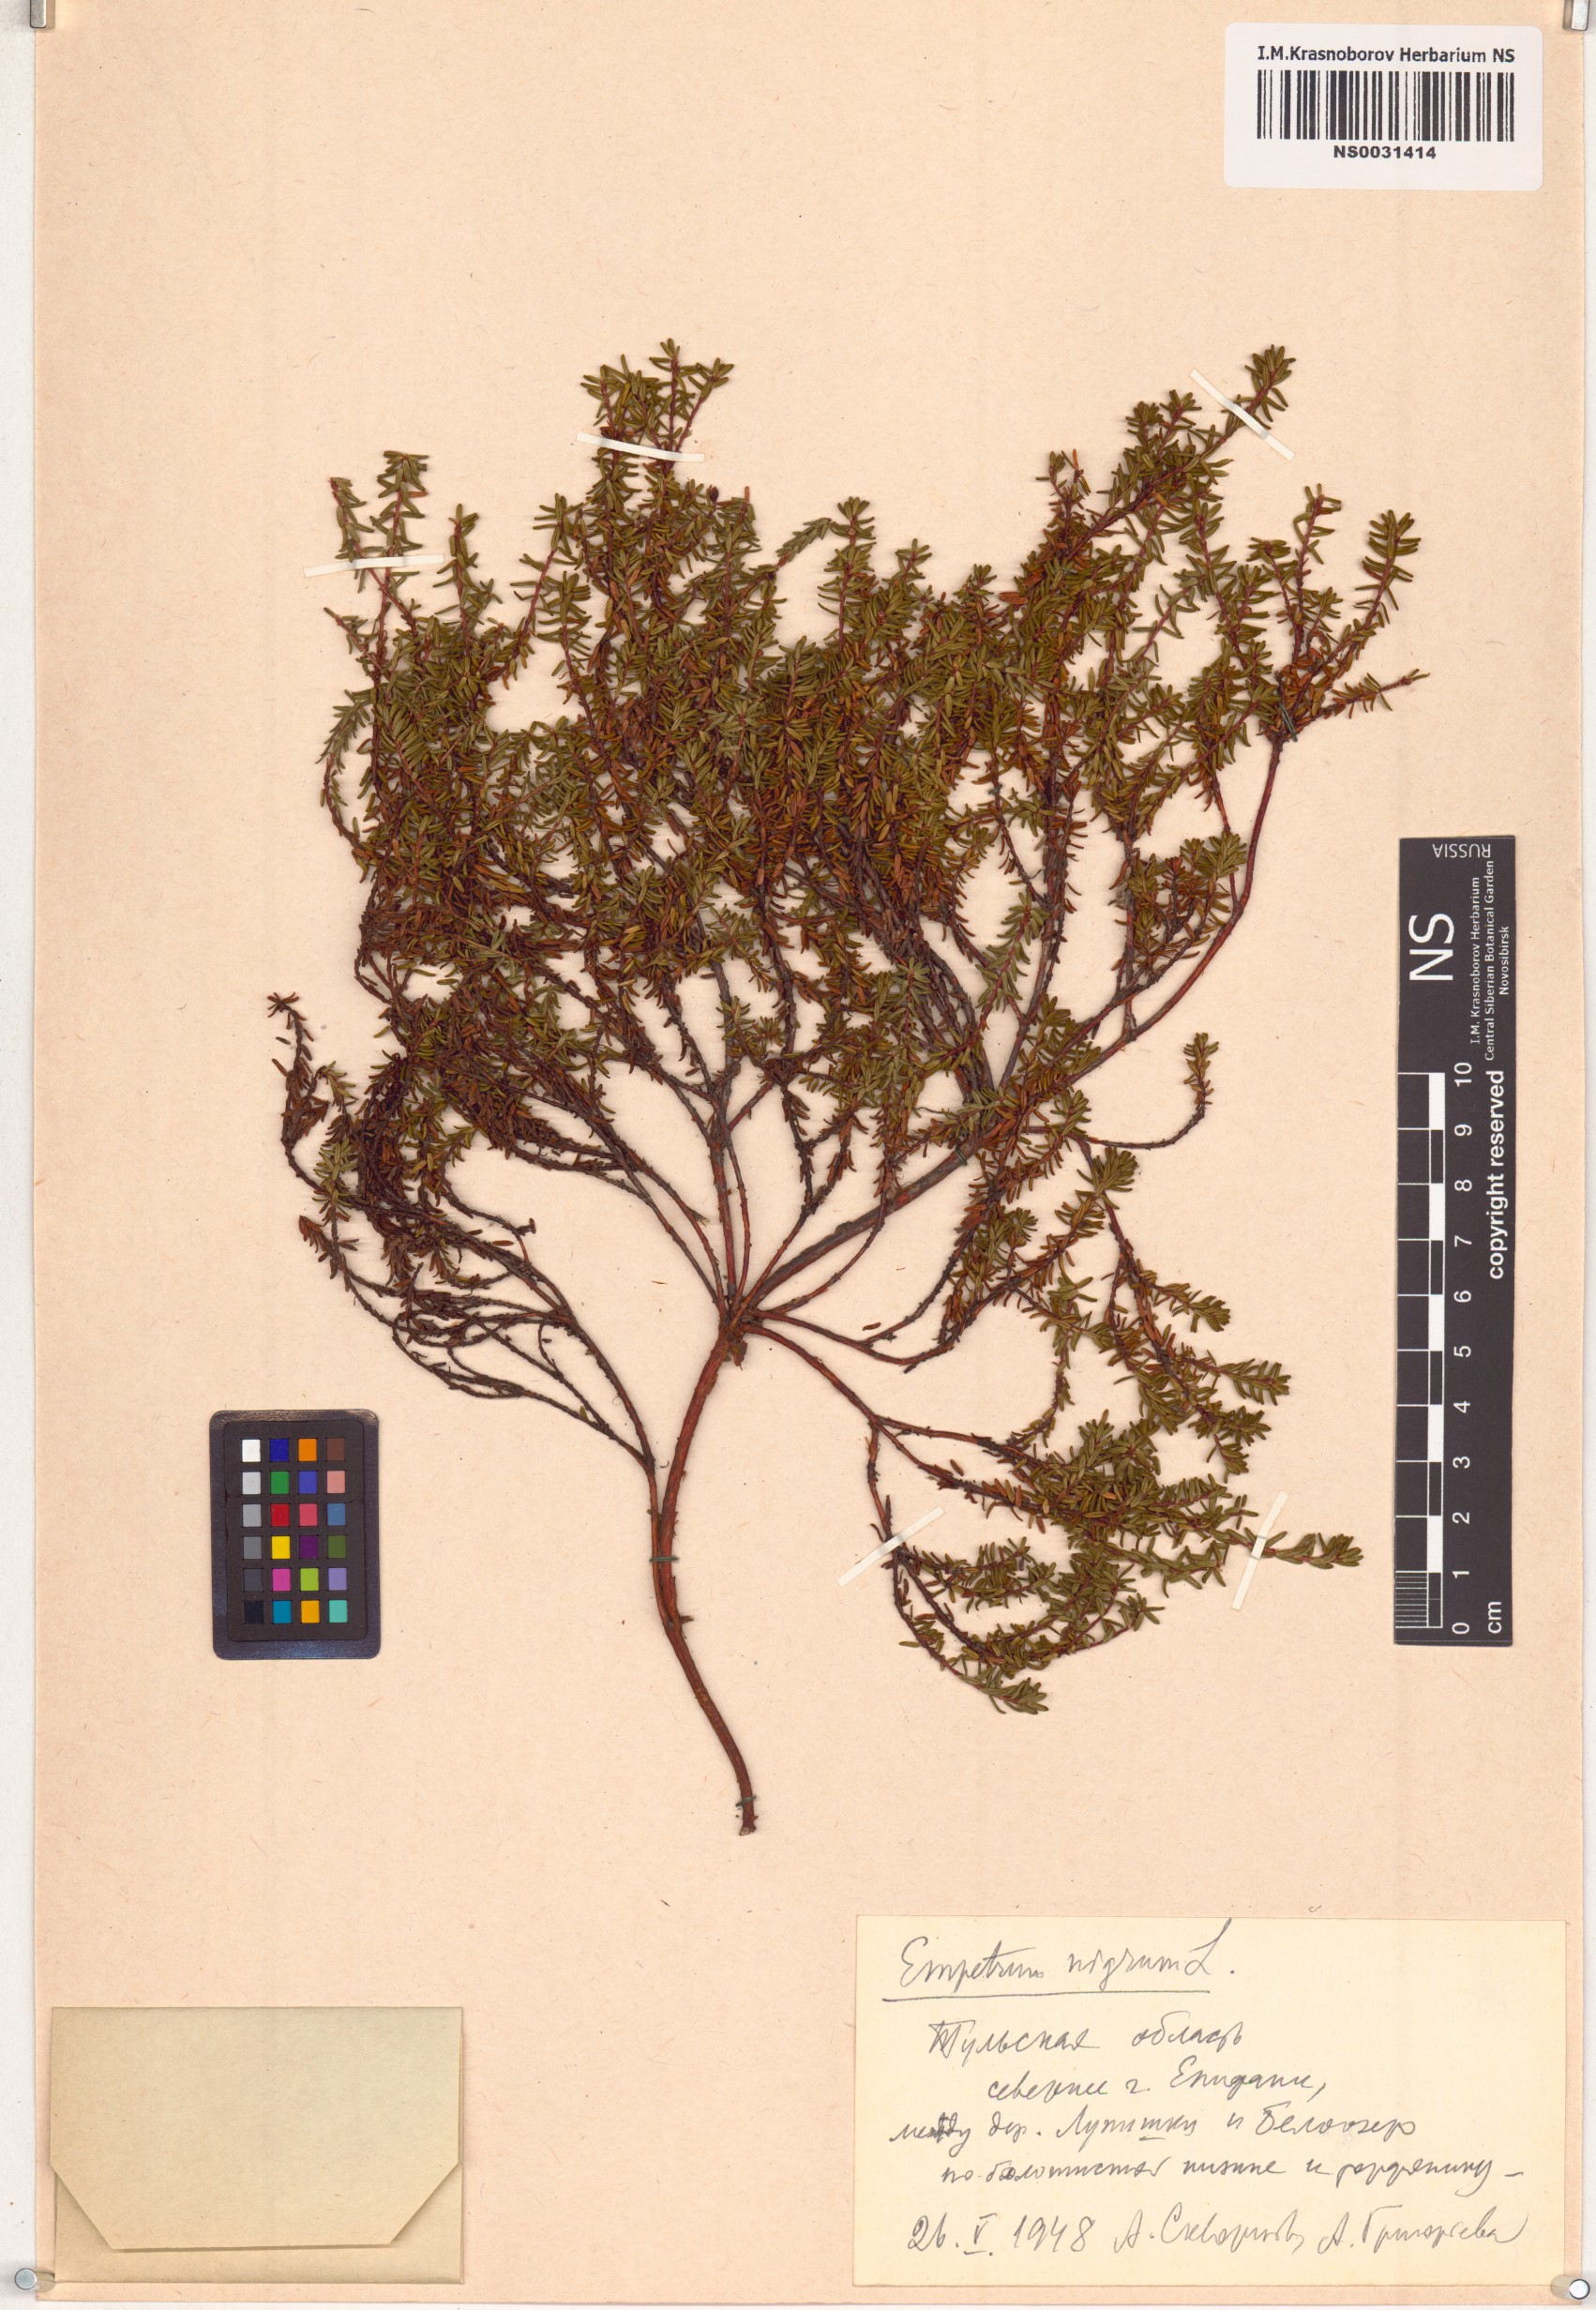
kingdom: Plantae
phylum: Tracheophyta
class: Magnoliopsida
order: Ericales
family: Ericaceae
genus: Empetrum
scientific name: Empetrum nigrum
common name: Black crowberry
